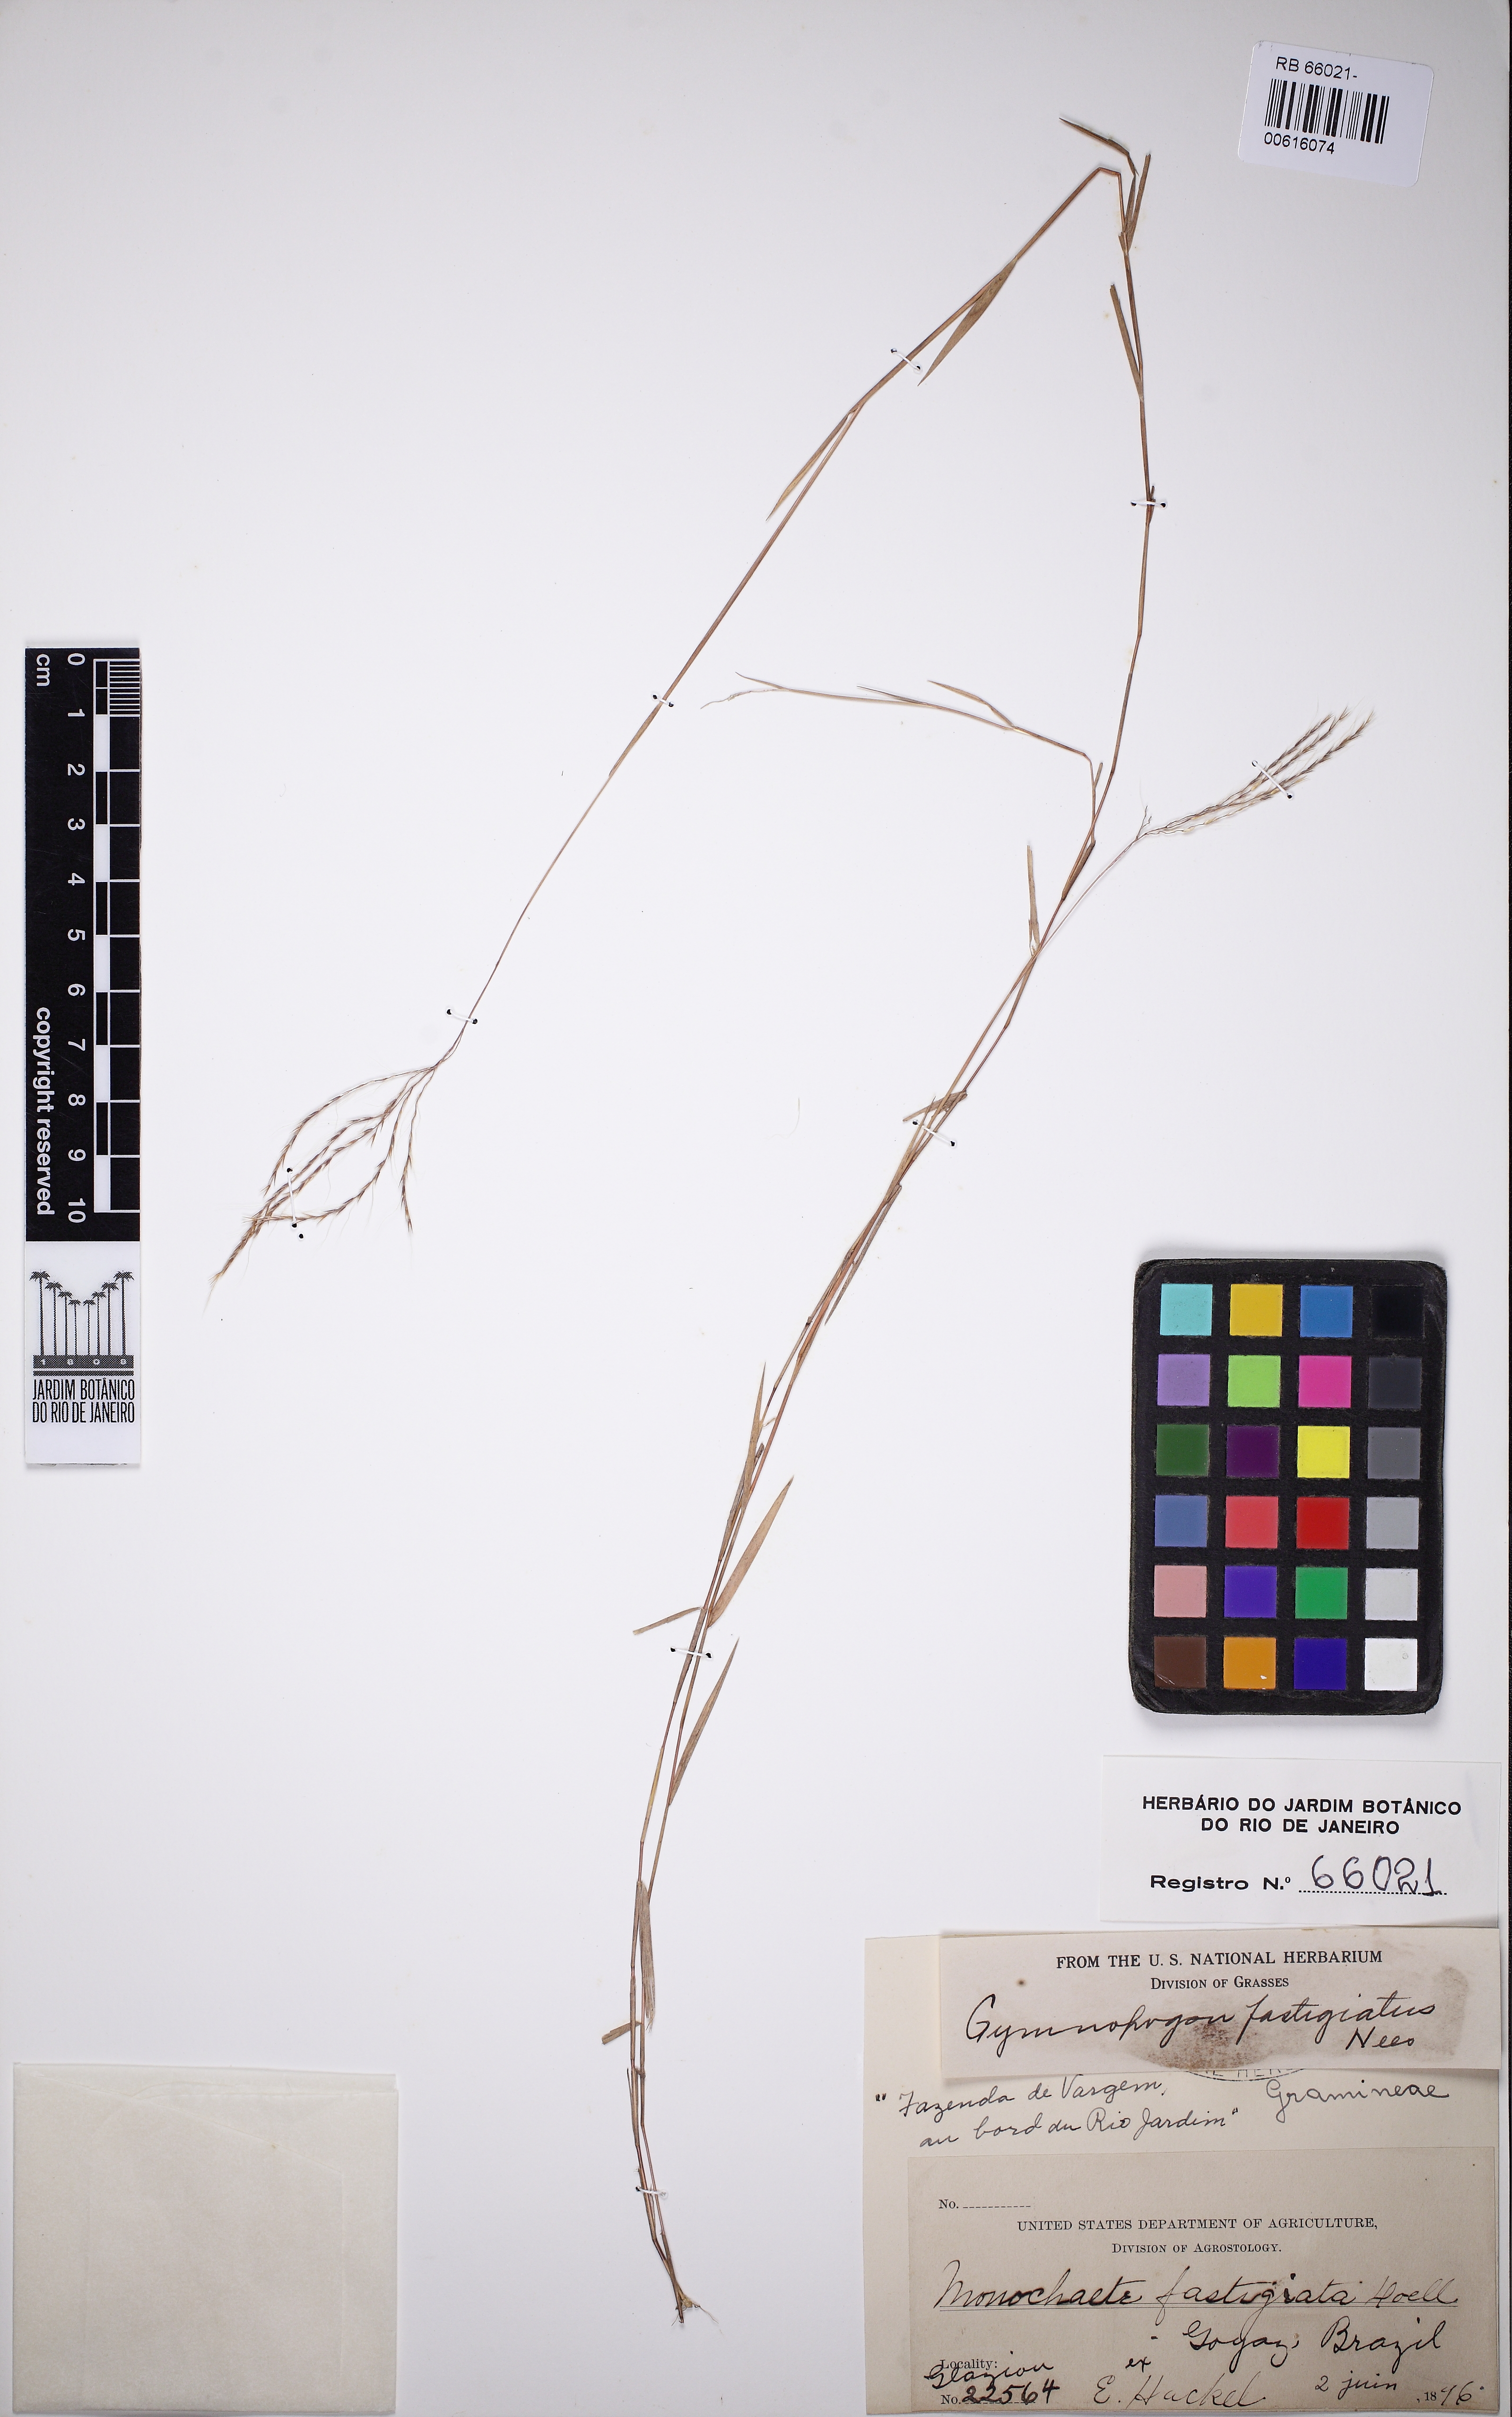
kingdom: Plantae
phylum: Tracheophyta
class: Liliopsida
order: Poales
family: Poaceae
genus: Gymnopogon
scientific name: Gymnopogon fastigiatus
